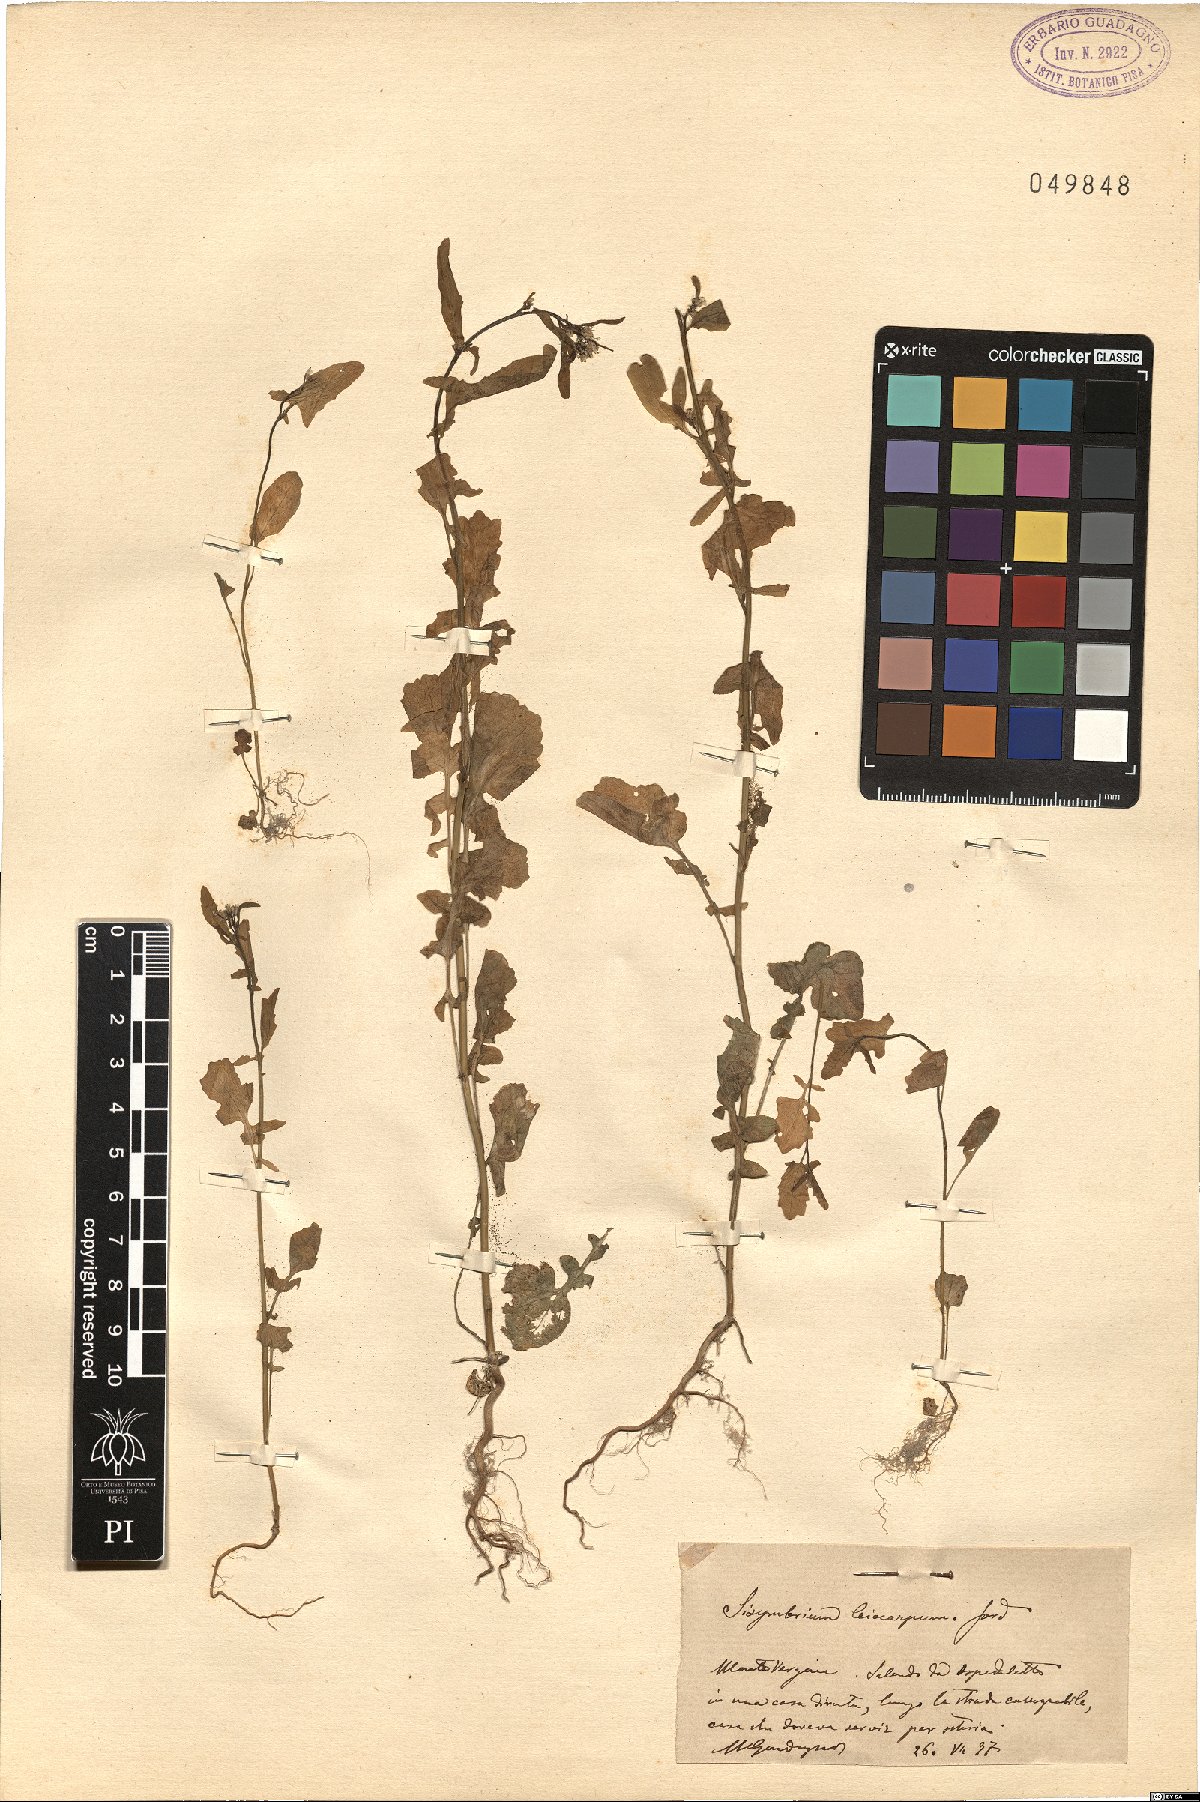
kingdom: Plantae
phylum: Tracheophyta
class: Magnoliopsida
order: Brassicales
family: Brassicaceae
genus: Sisymbrium
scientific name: Sisymbrium officinale
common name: Hedge mustard
